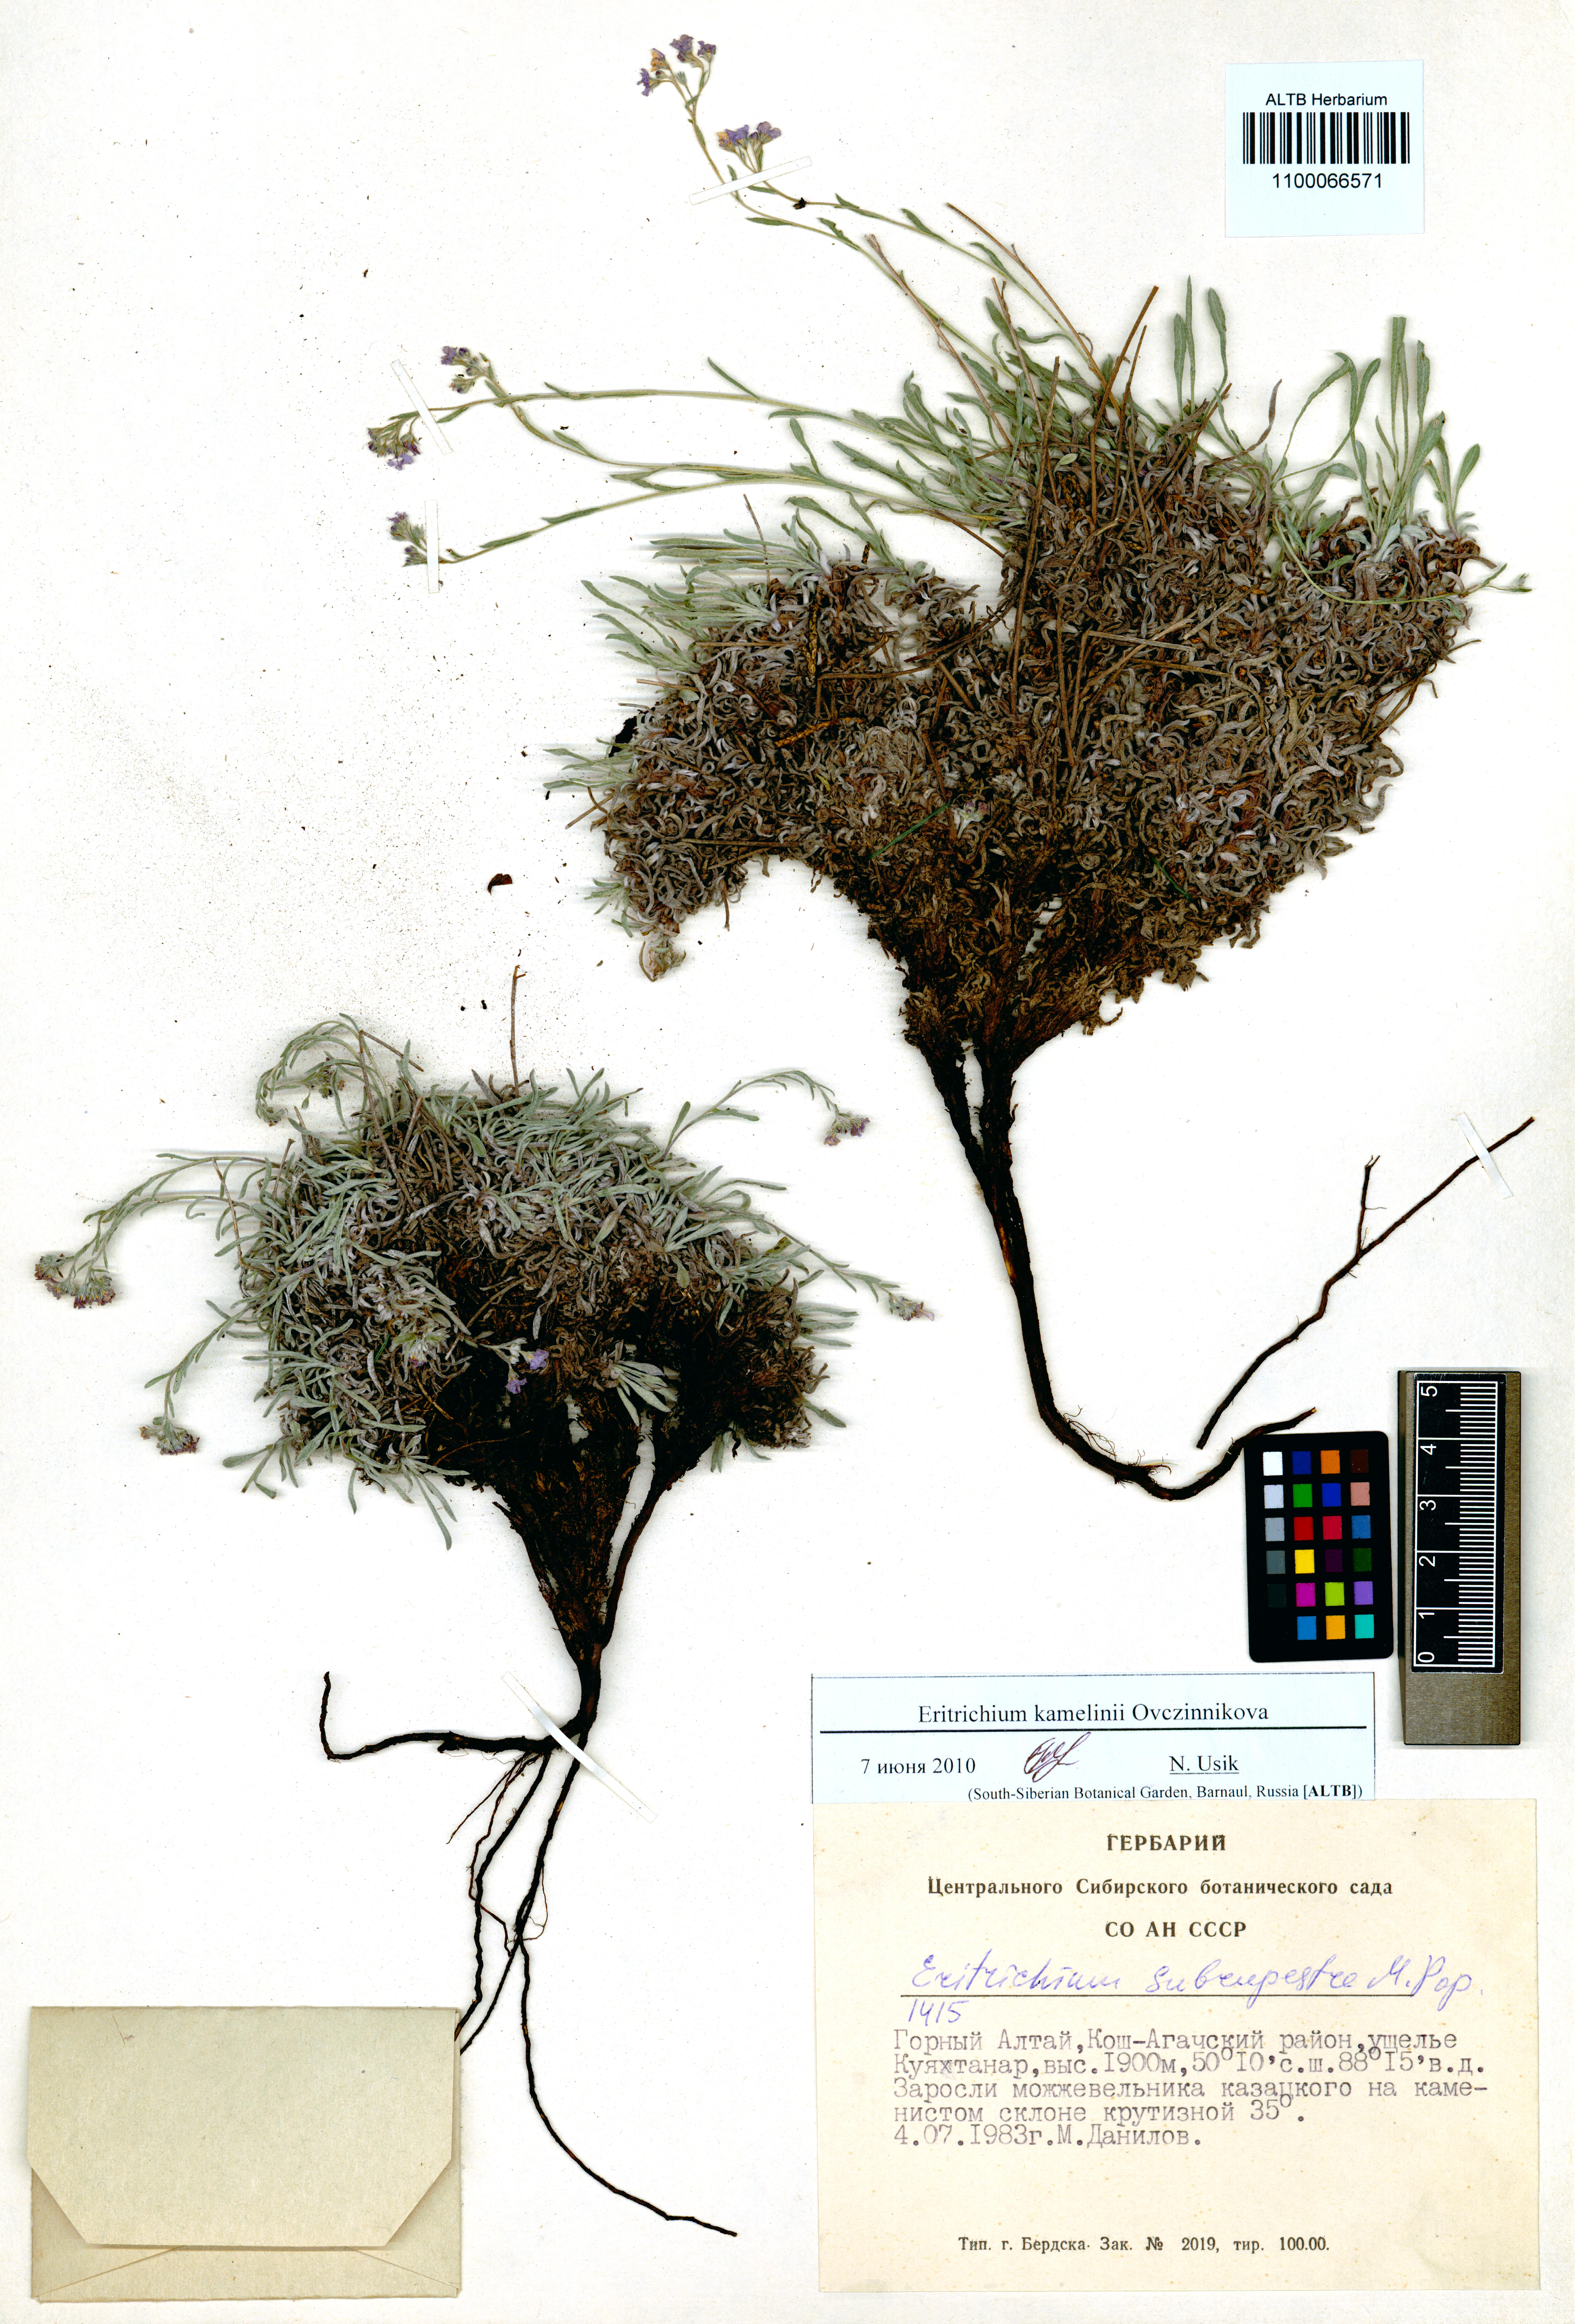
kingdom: Plantae
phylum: Tracheophyta
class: Magnoliopsida
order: Boraginales
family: Boraginaceae
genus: Eritrichium
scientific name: Eritrichium kamelinii
